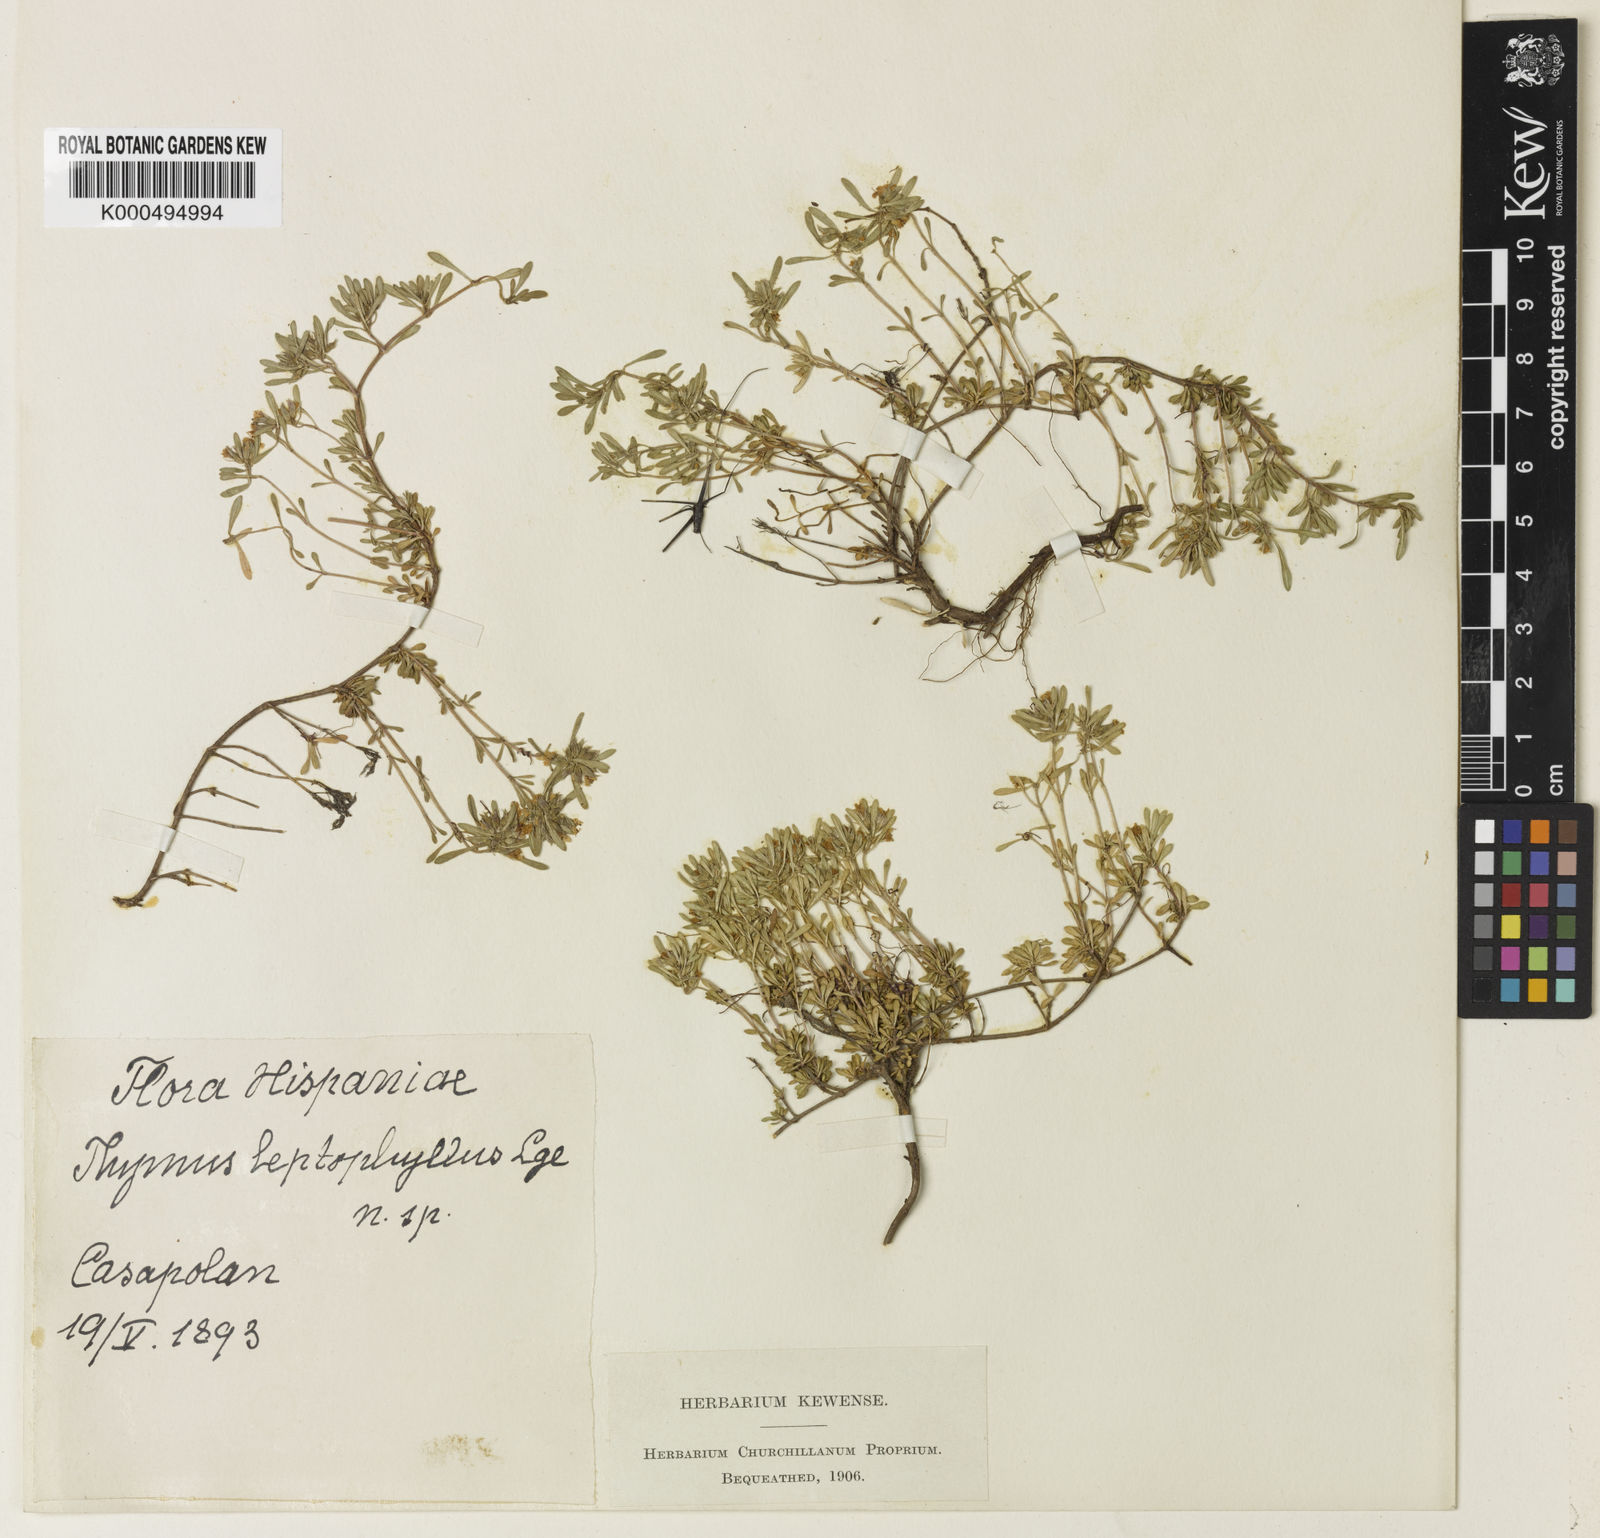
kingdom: Plantae
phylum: Tracheophyta
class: Magnoliopsida
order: Lamiales
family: Lamiaceae
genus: Thymus
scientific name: Thymus leptophyllus
